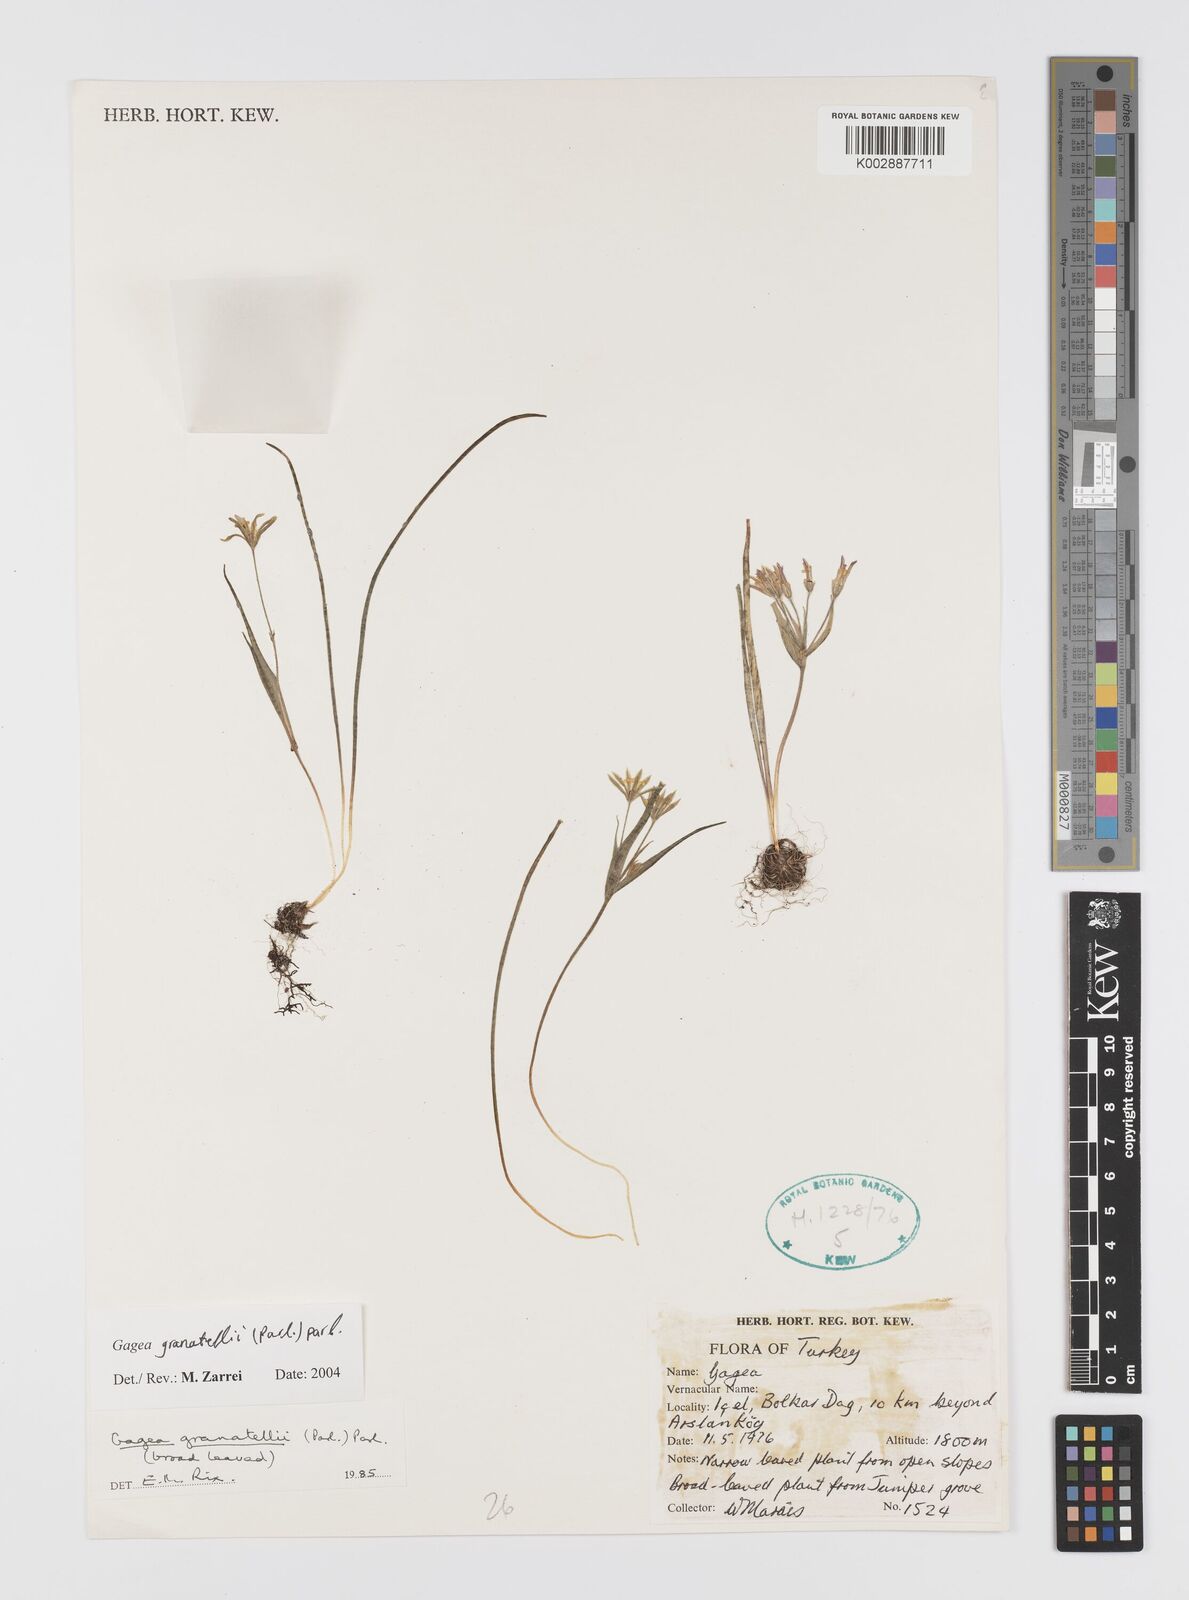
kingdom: Plantae
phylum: Tracheophyta
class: Liliopsida
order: Liliales
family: Liliaceae
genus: Gagea
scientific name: Gagea granatellii
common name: Granatelli’s gagea
